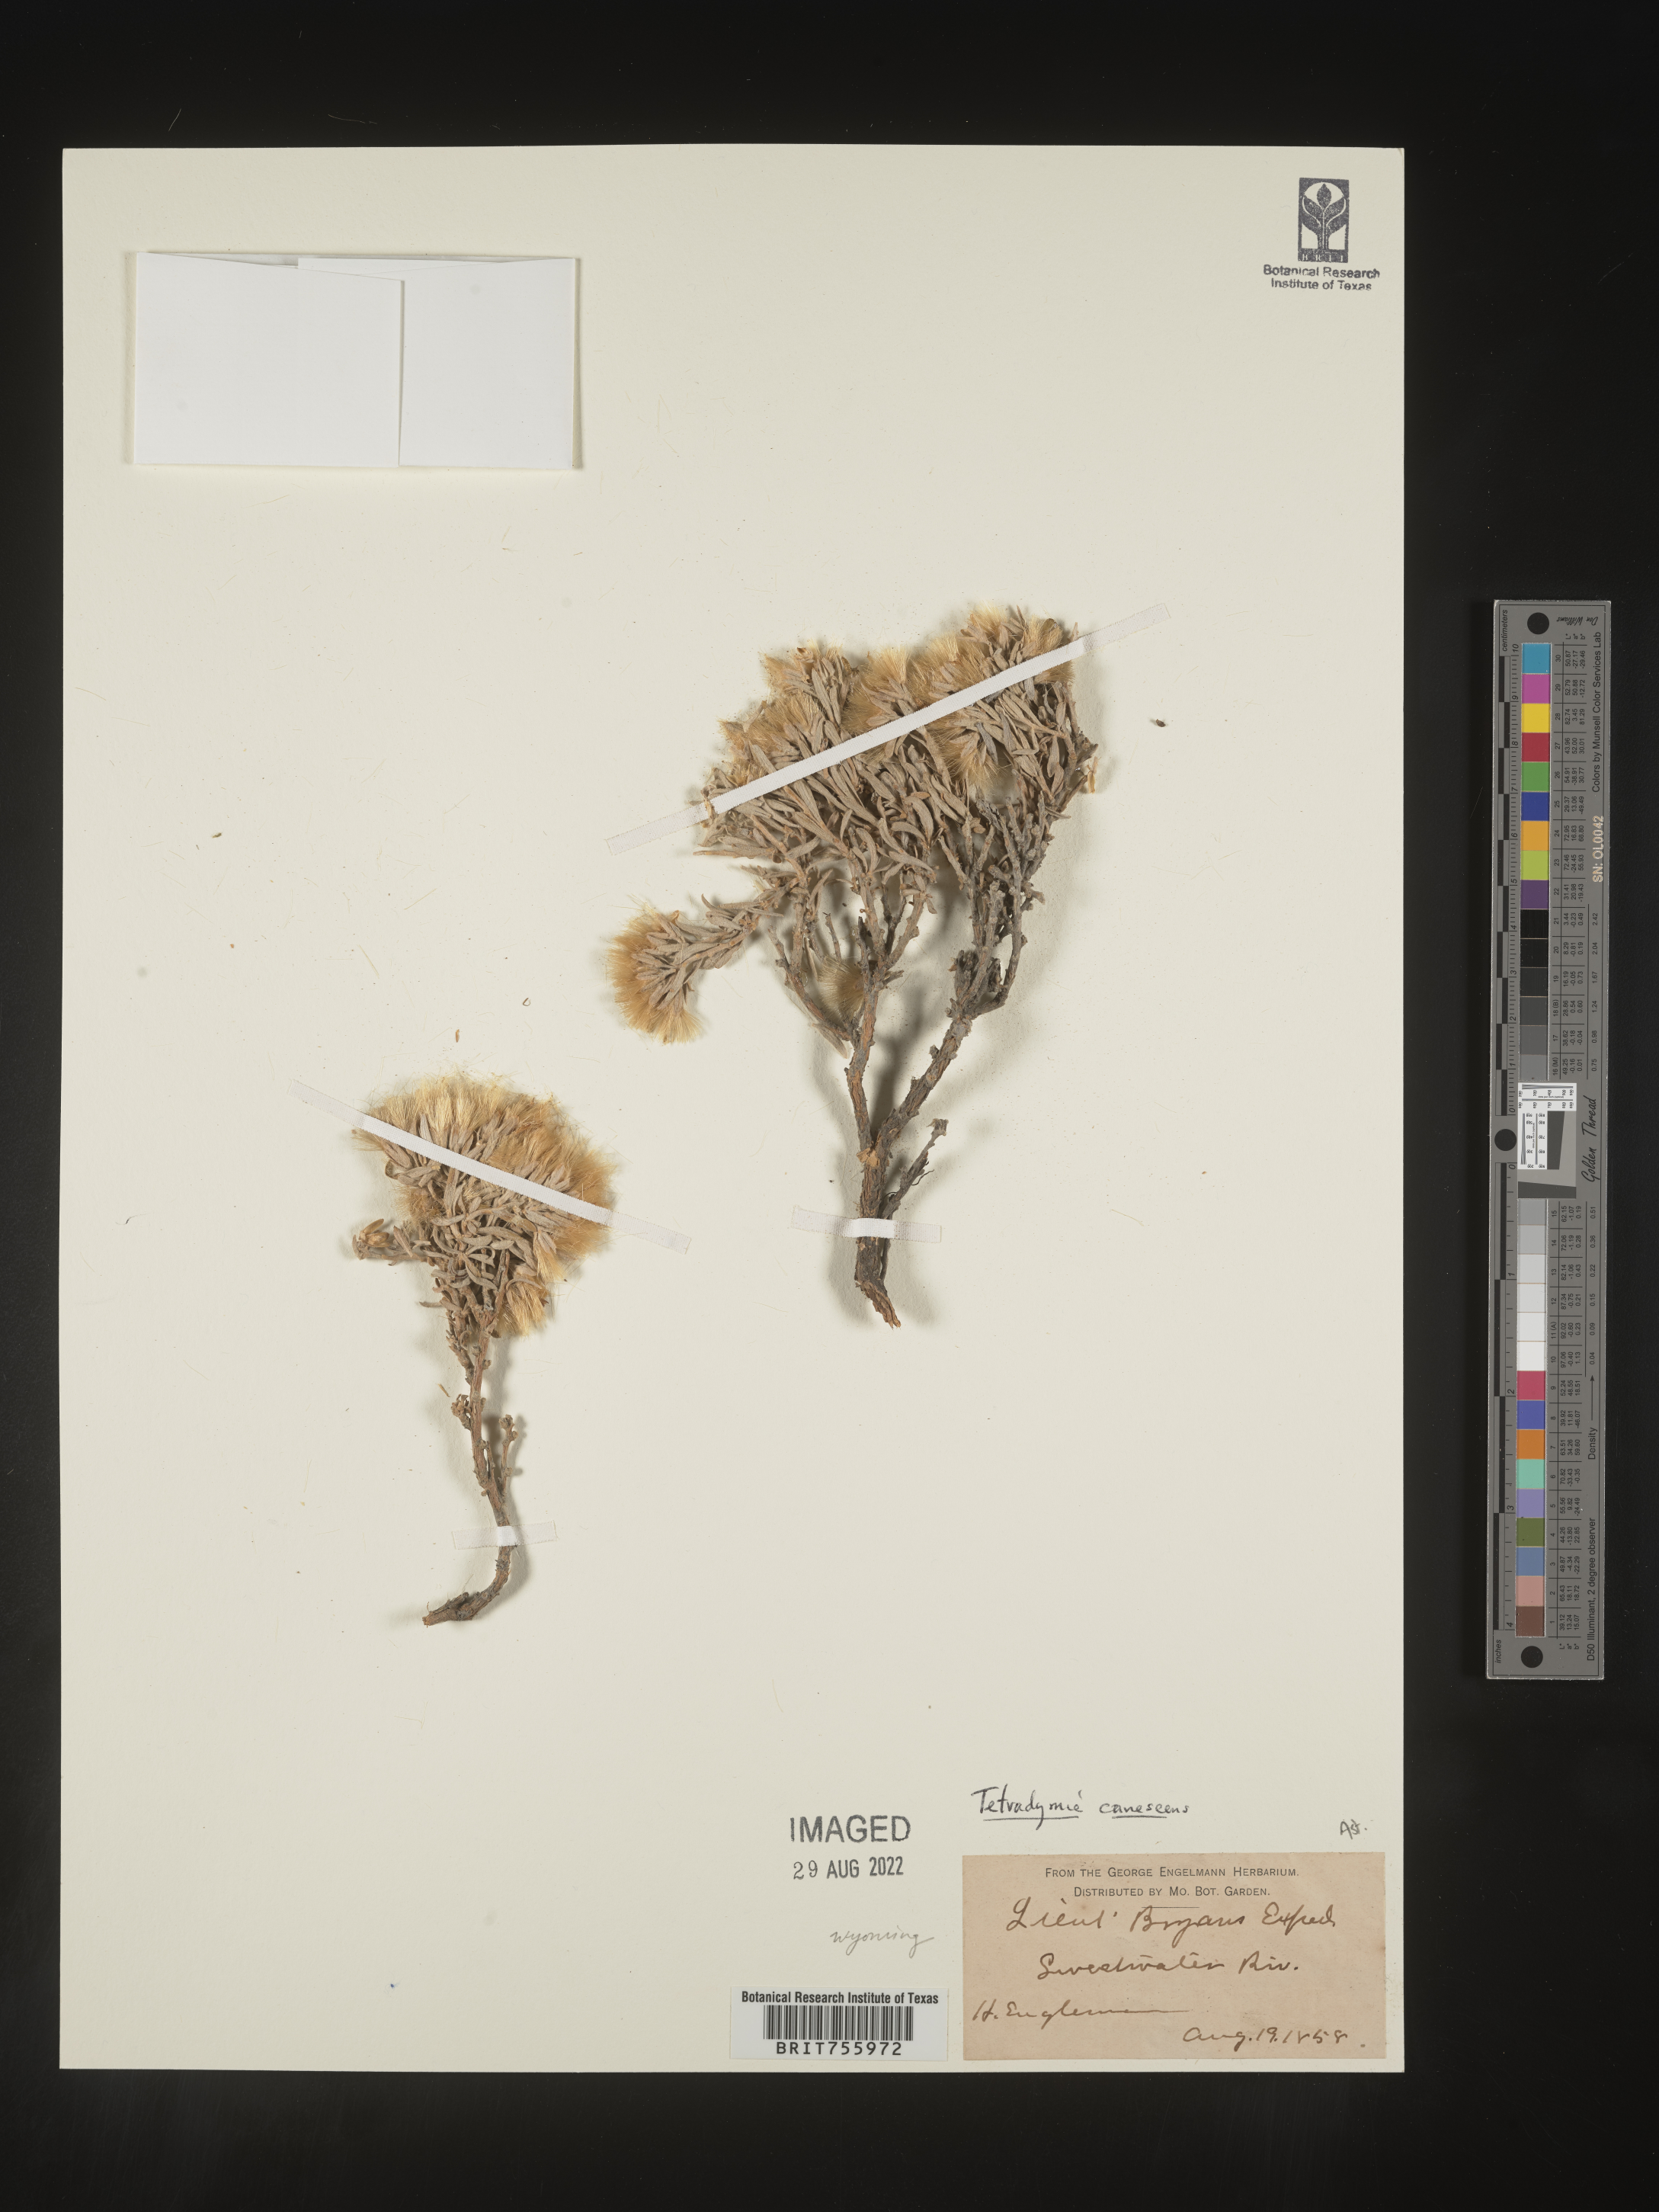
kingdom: Plantae
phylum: Tracheophyta
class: Magnoliopsida
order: Asterales
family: Asteraceae
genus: Tetradymia
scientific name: Tetradymia canescens
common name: Spineless horsebrush
